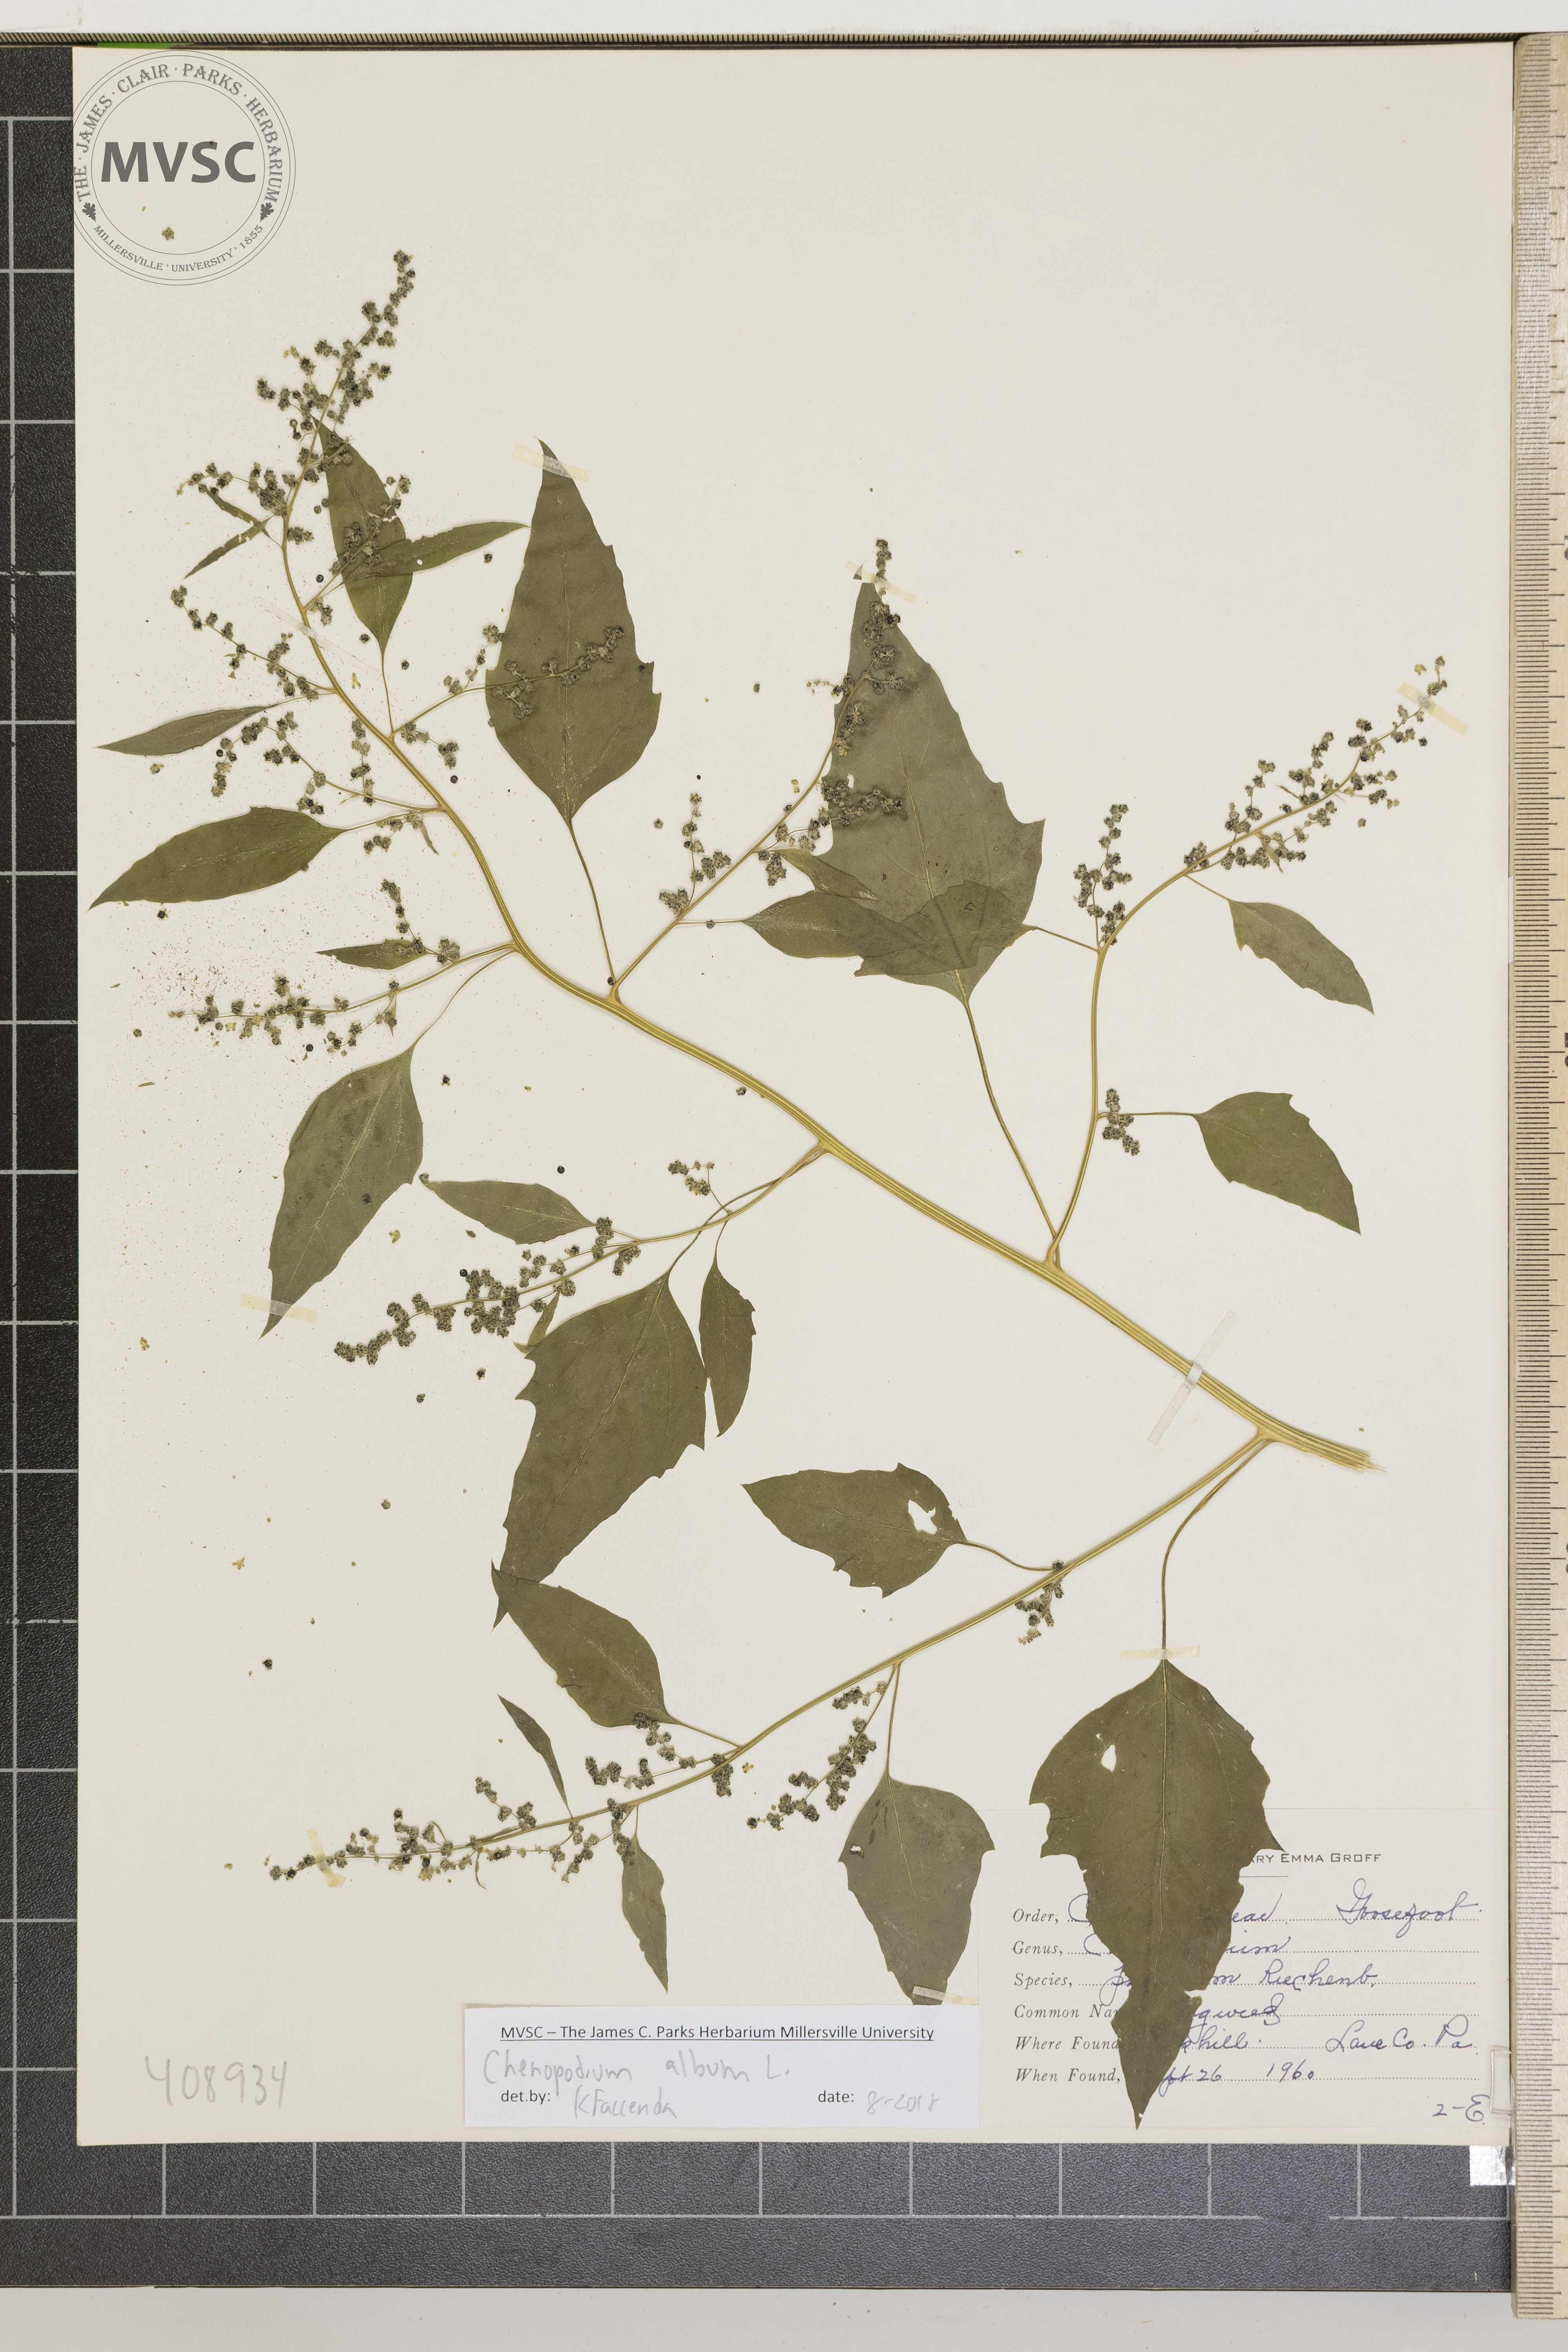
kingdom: Plantae
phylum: Tracheophyta
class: Magnoliopsida
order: Caryophyllales
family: Amaranthaceae
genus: Chenopodium
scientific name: Chenopodium album
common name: Pigweed
